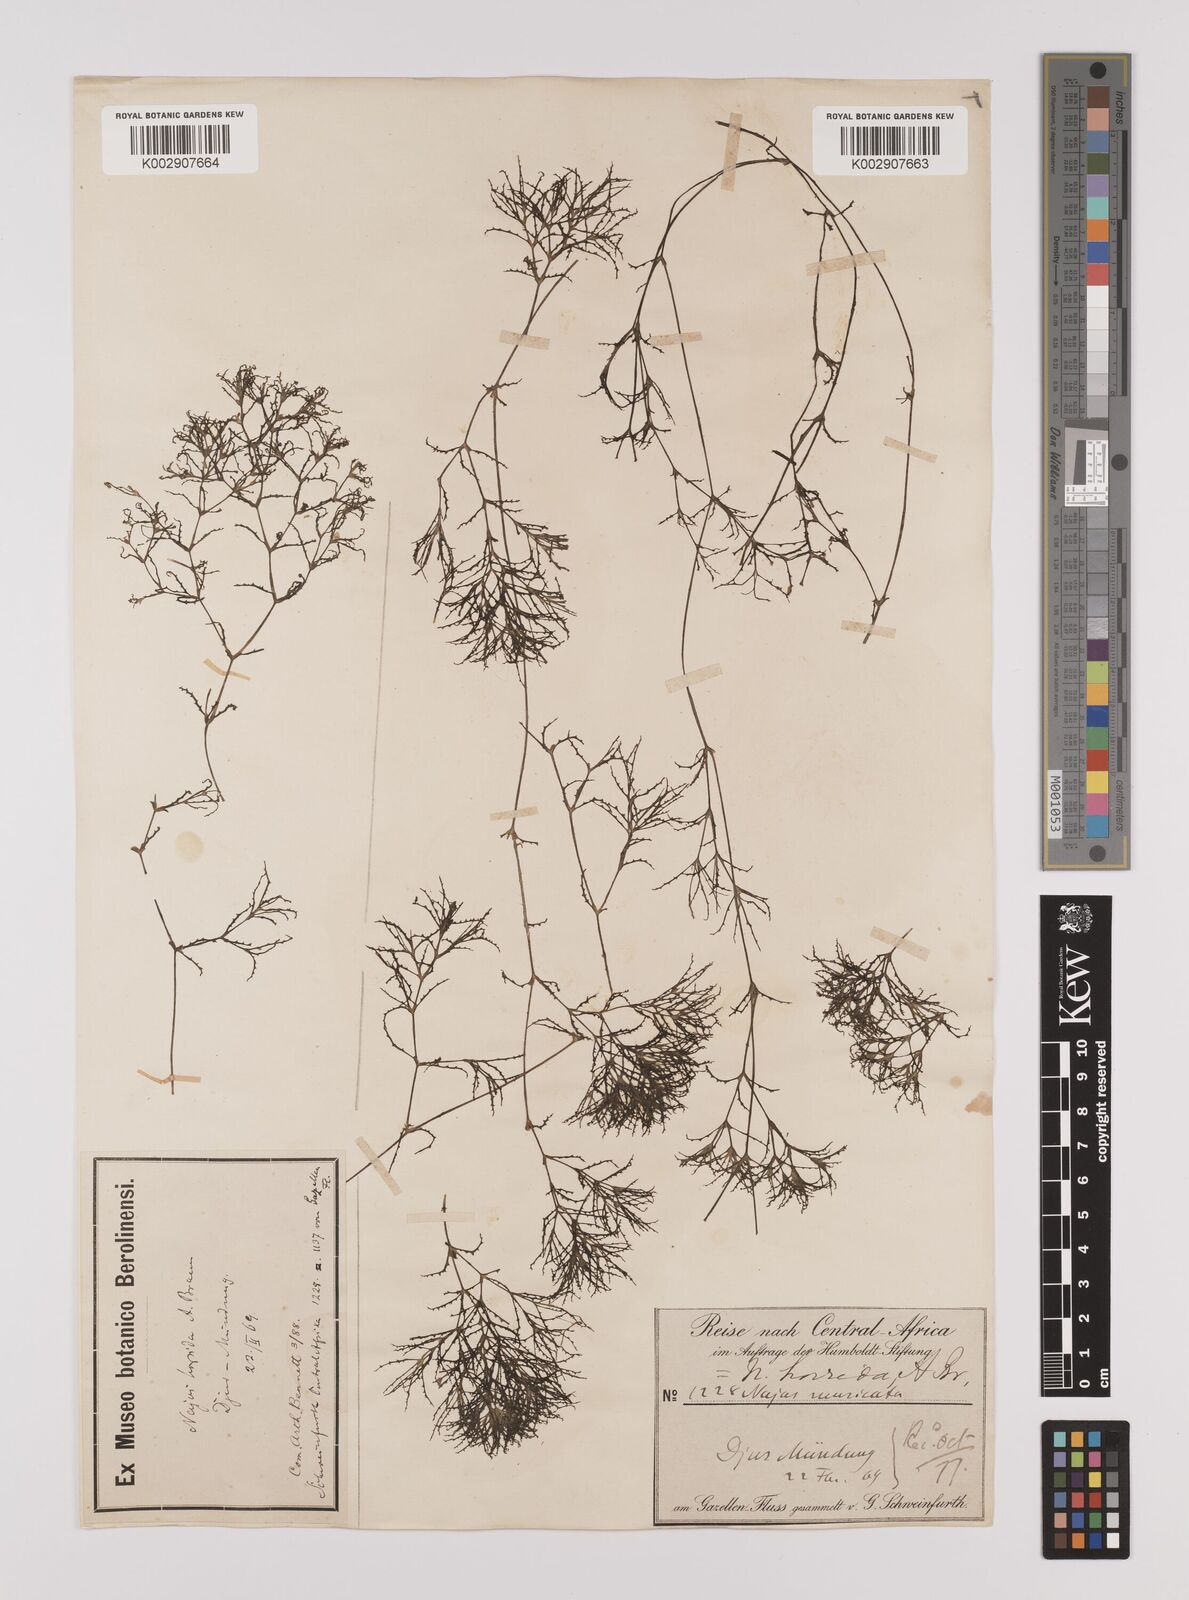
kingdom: Plantae
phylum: Tracheophyta
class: Liliopsida
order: Alismatales
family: Hydrocharitaceae
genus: Najas
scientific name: Najas pectinata
